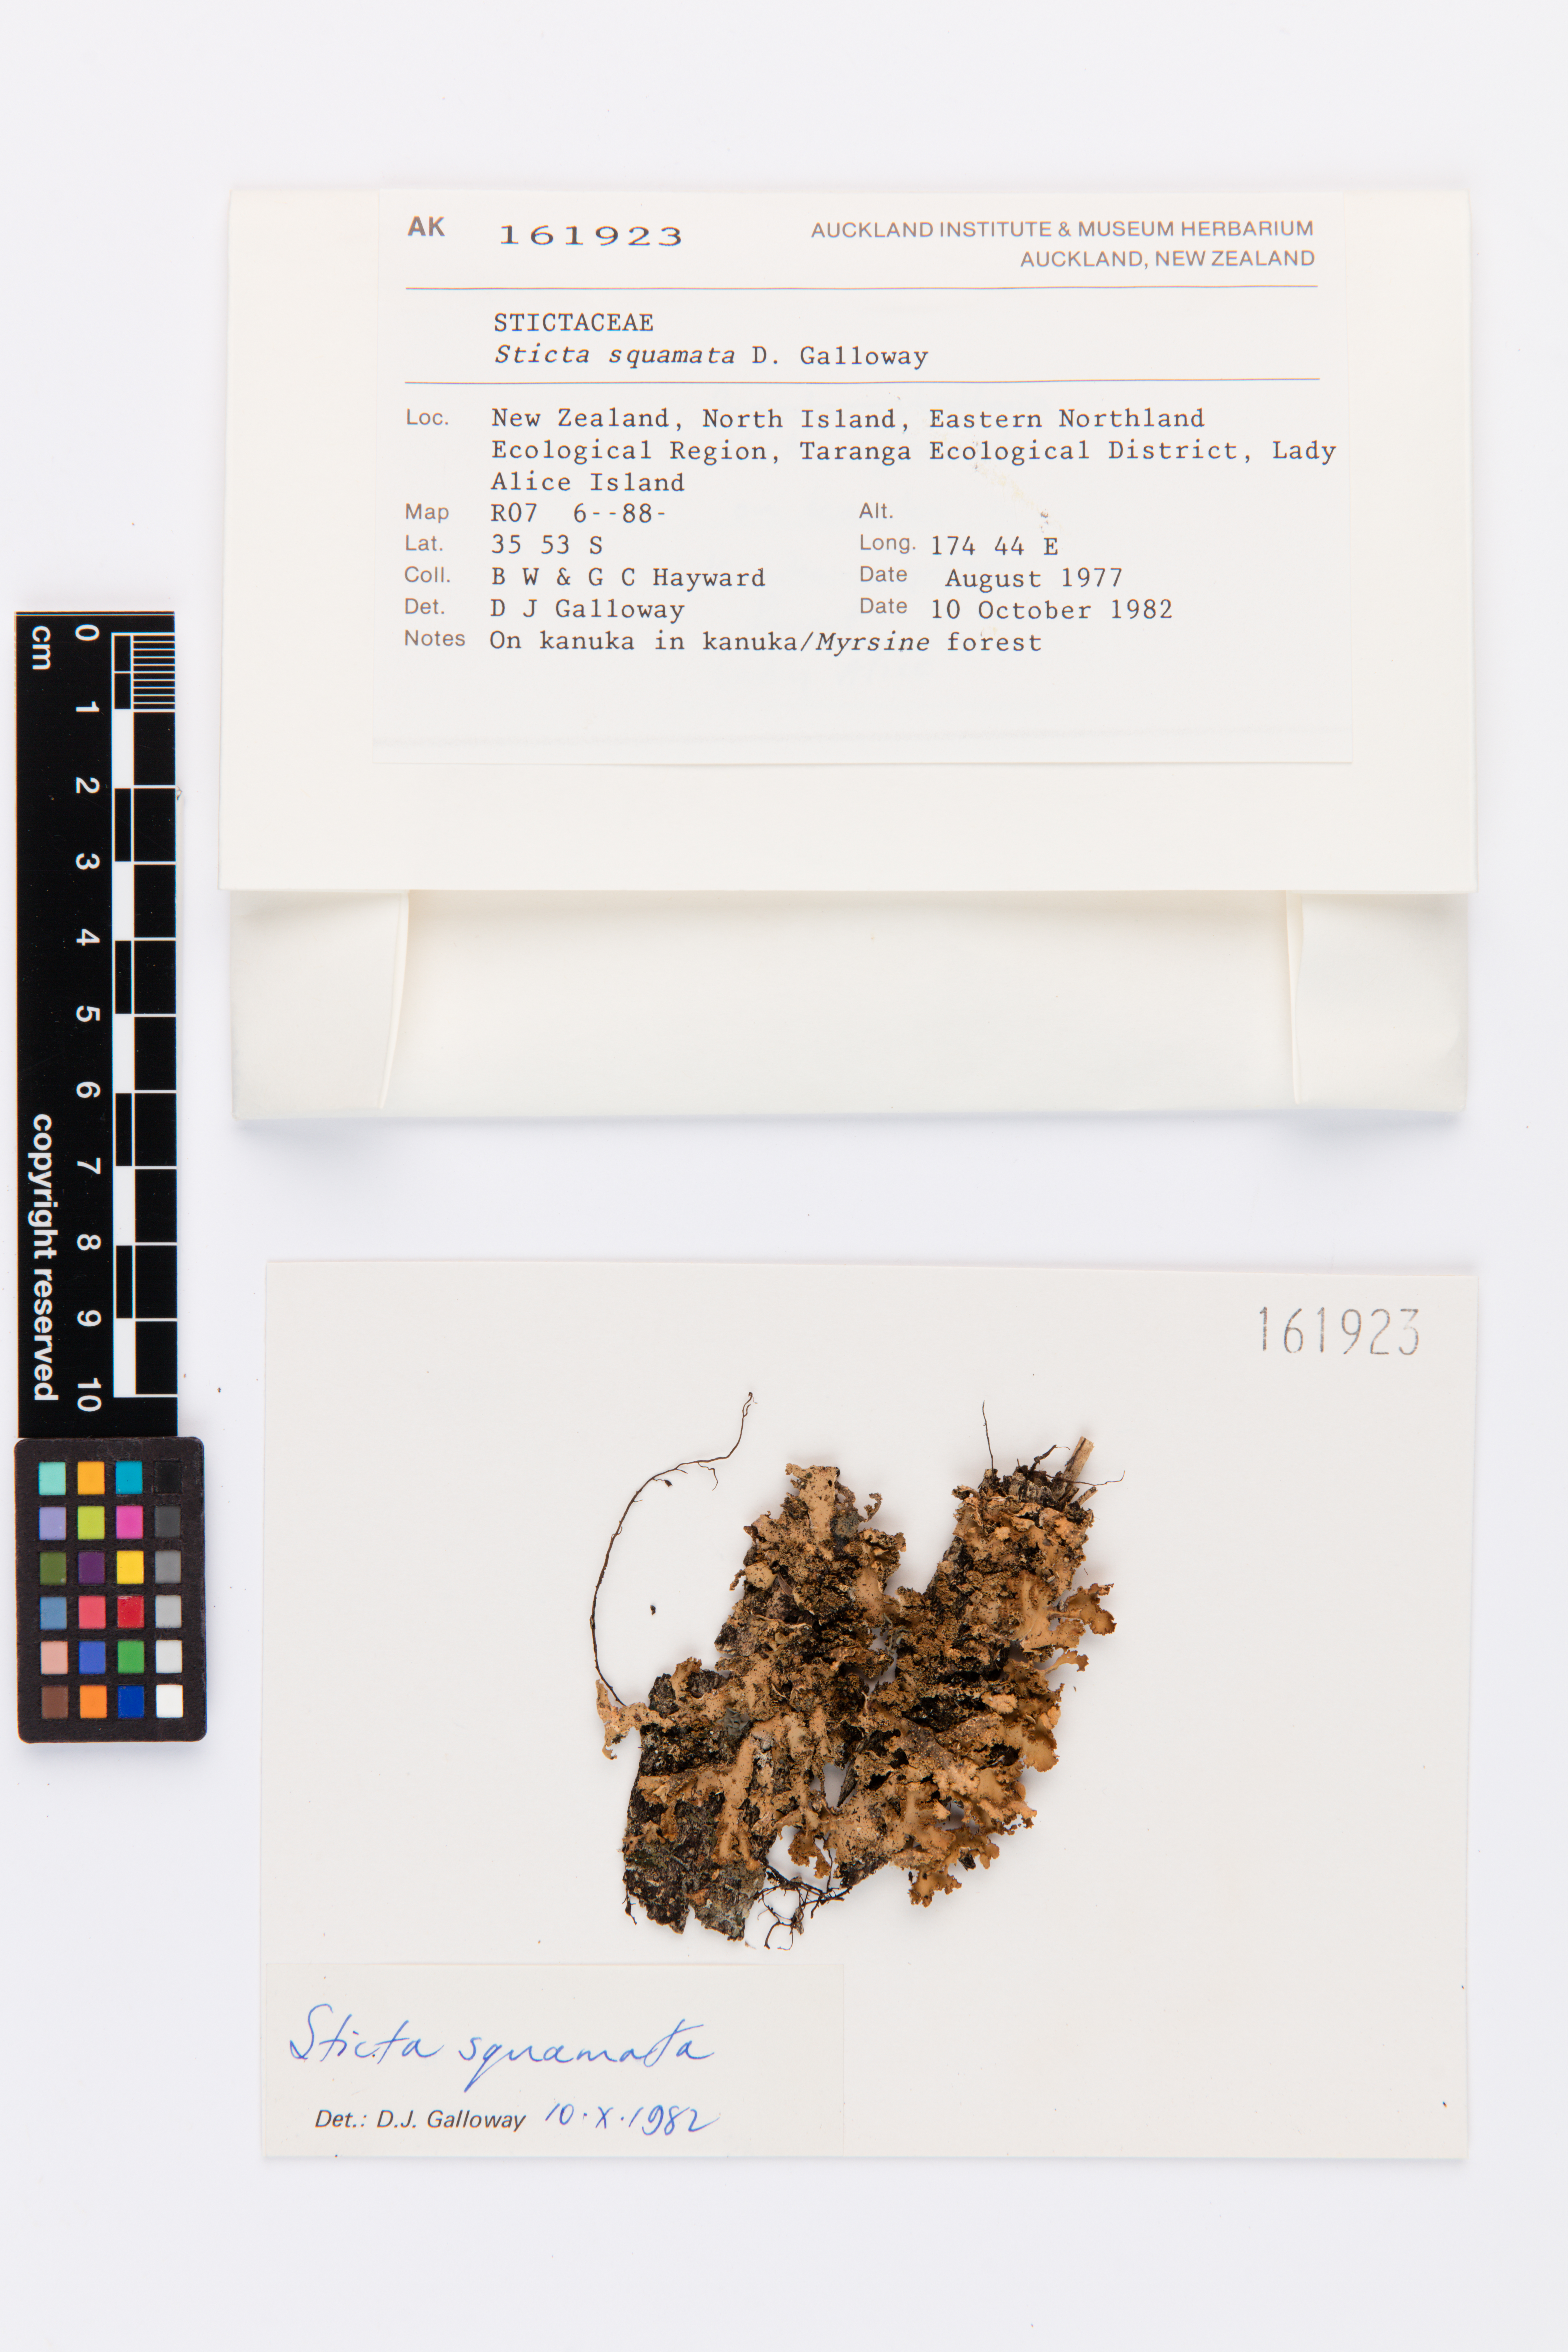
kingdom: Fungi
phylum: Ascomycota
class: Lecanoromycetes
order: Peltigerales
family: Lobariaceae
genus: Sticta
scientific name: Sticta squamata
